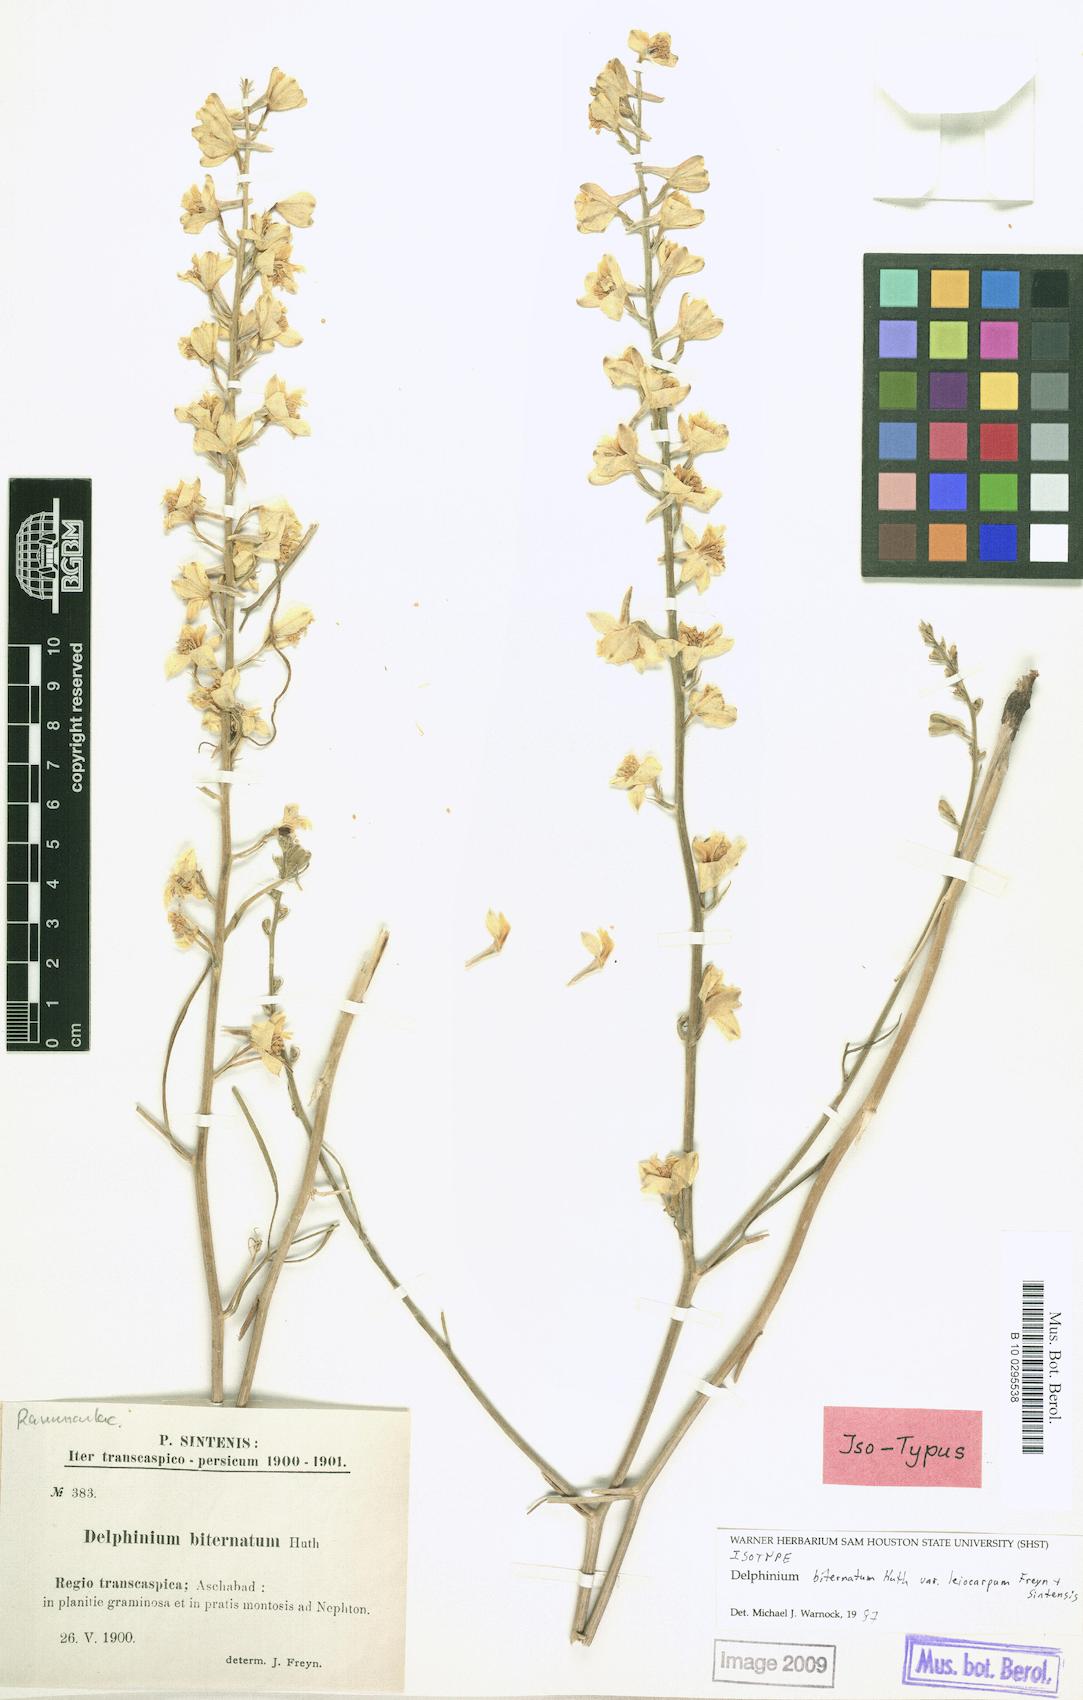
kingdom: Plantae
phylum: Tracheophyta
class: Magnoliopsida
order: Ranunculales
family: Ranunculaceae
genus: Delphinium
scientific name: Delphinium semibarbatum
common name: Zalil
